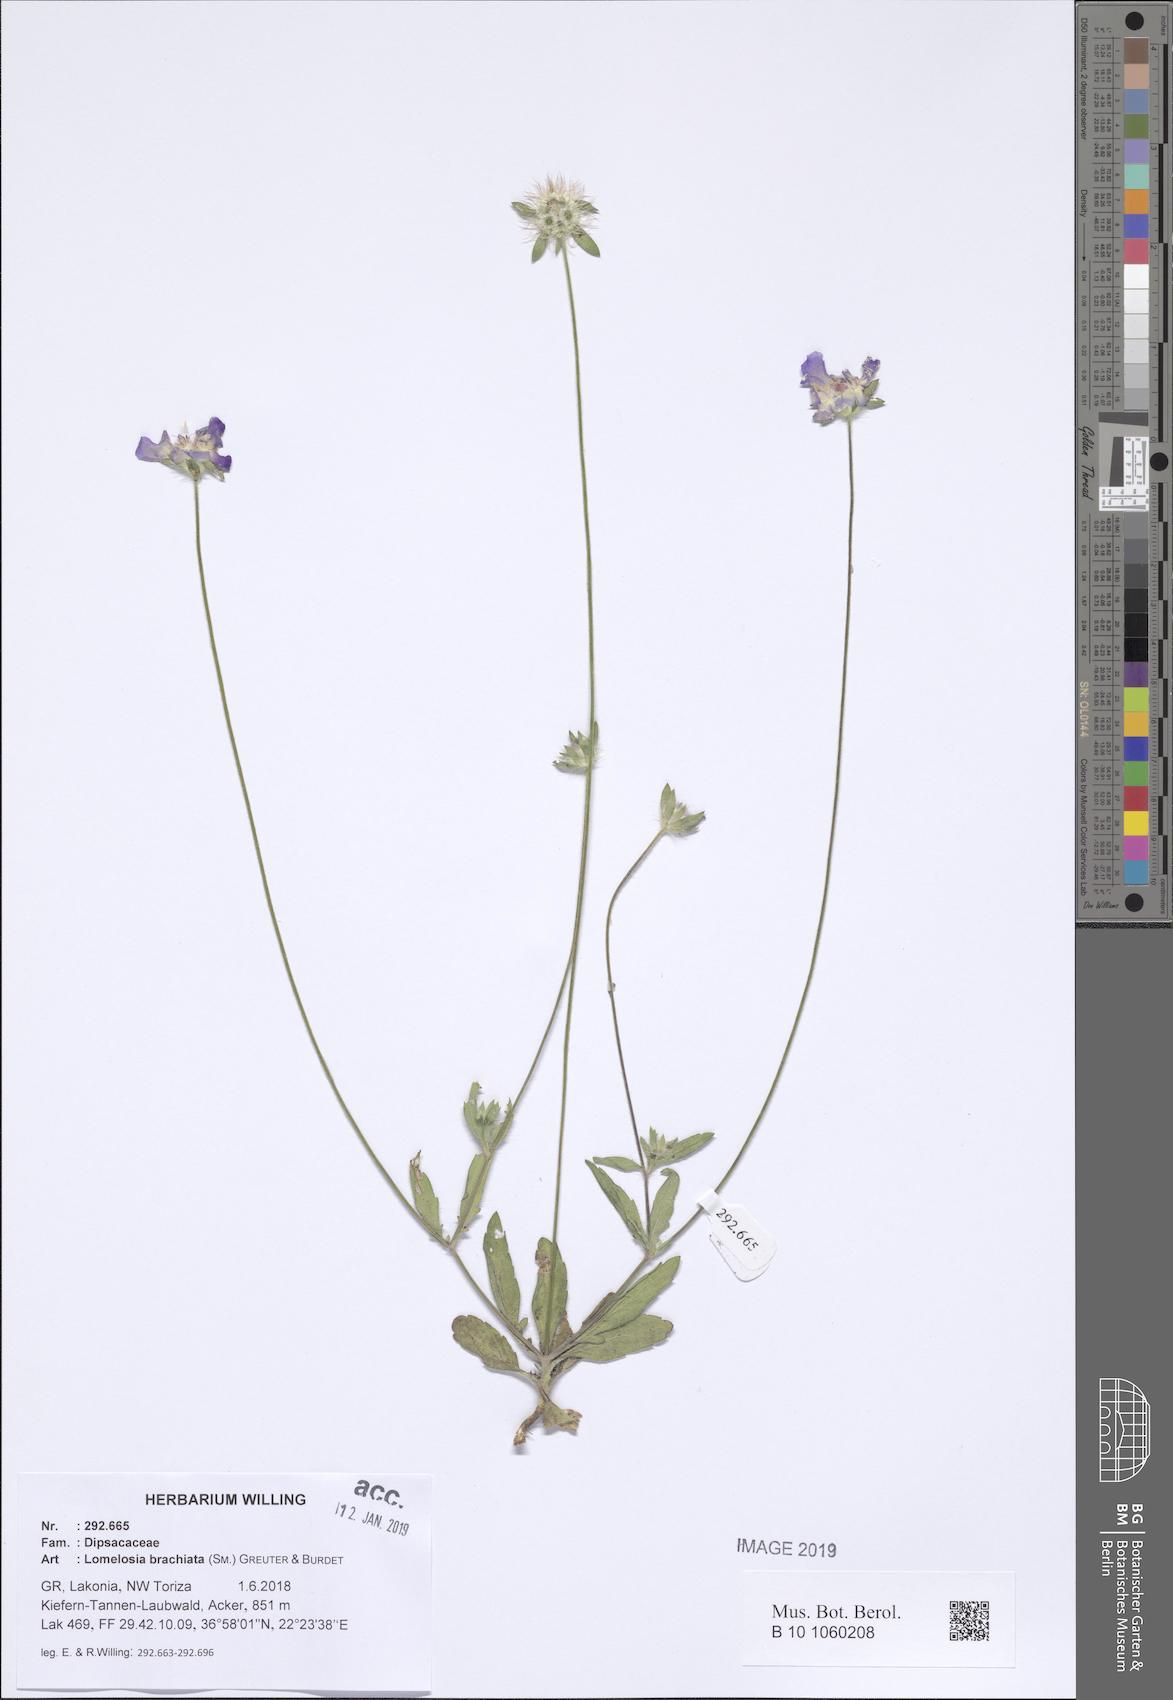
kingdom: Plantae
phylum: Tracheophyta
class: Magnoliopsida
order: Dipsacales
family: Caprifoliaceae
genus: Lomelosia
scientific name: Lomelosia brachiata
